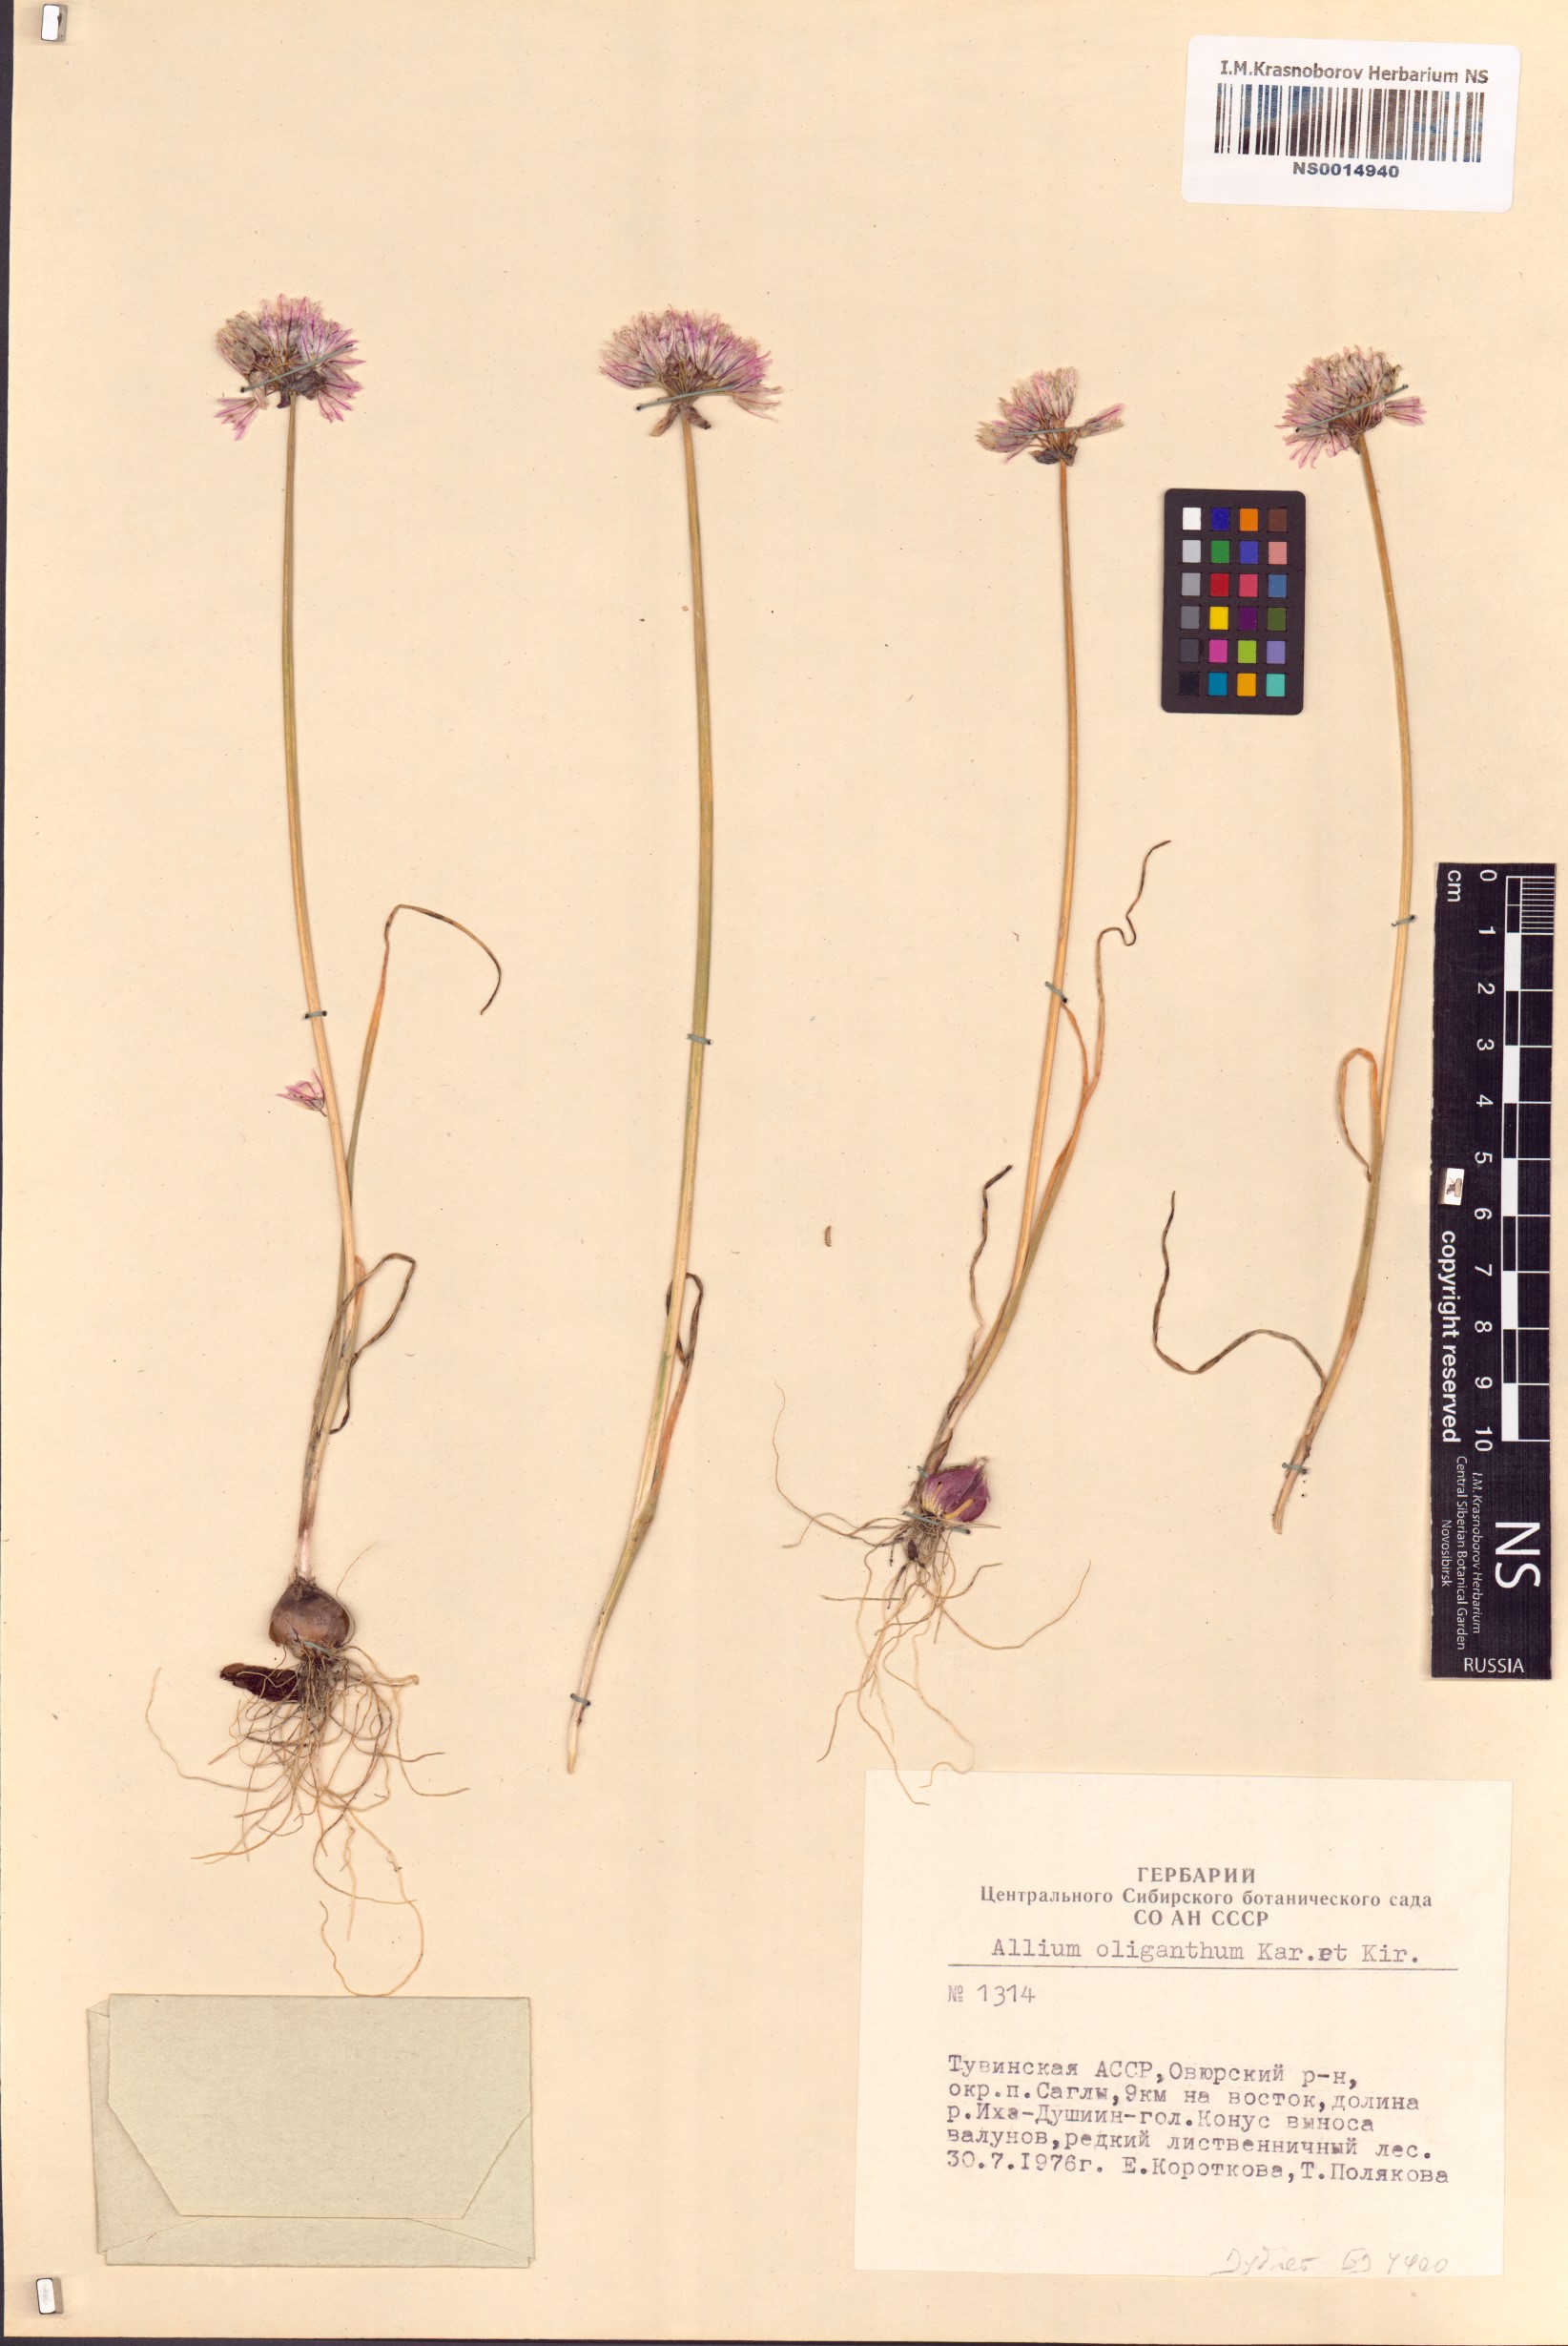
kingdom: Plantae
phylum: Tracheophyta
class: Liliopsida
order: Asparagales
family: Amaryllidaceae
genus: Allium
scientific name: Allium oliganthum
